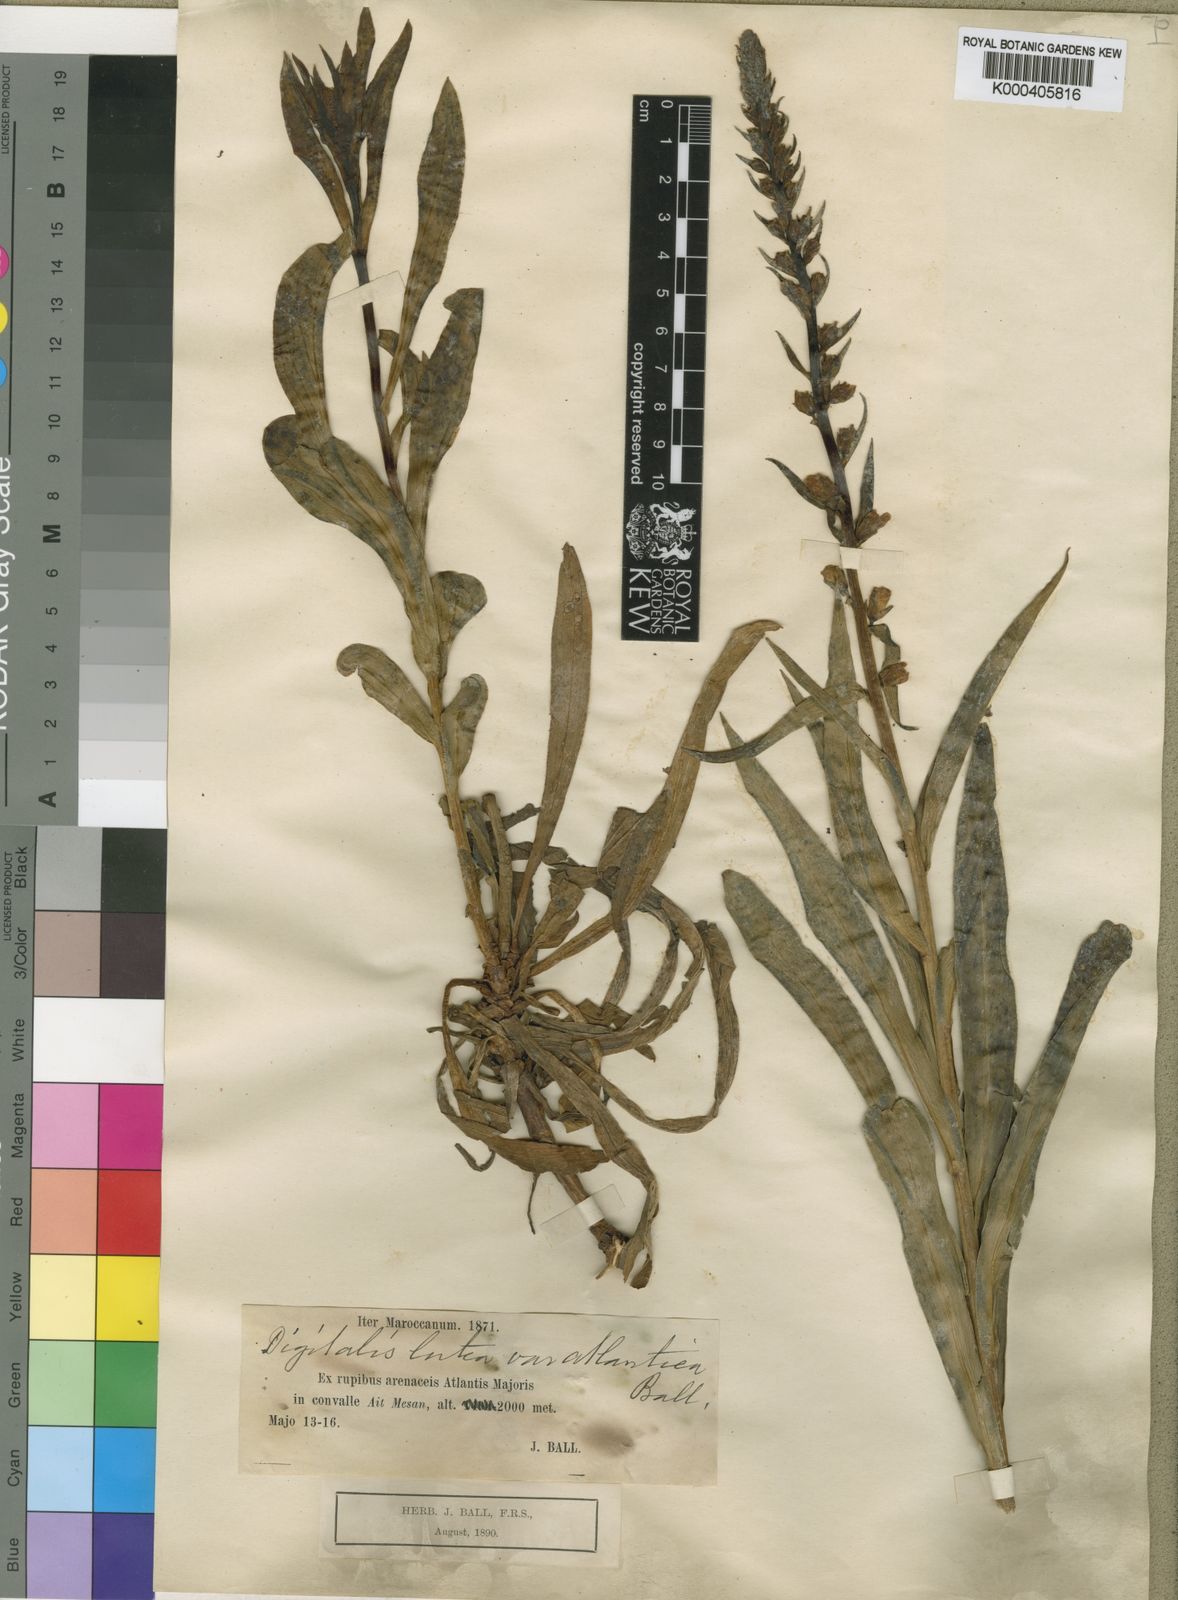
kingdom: Plantae
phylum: Tracheophyta
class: Magnoliopsida
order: Lamiales
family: Plantaginaceae
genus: Digitalis
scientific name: Digitalis subalpina
